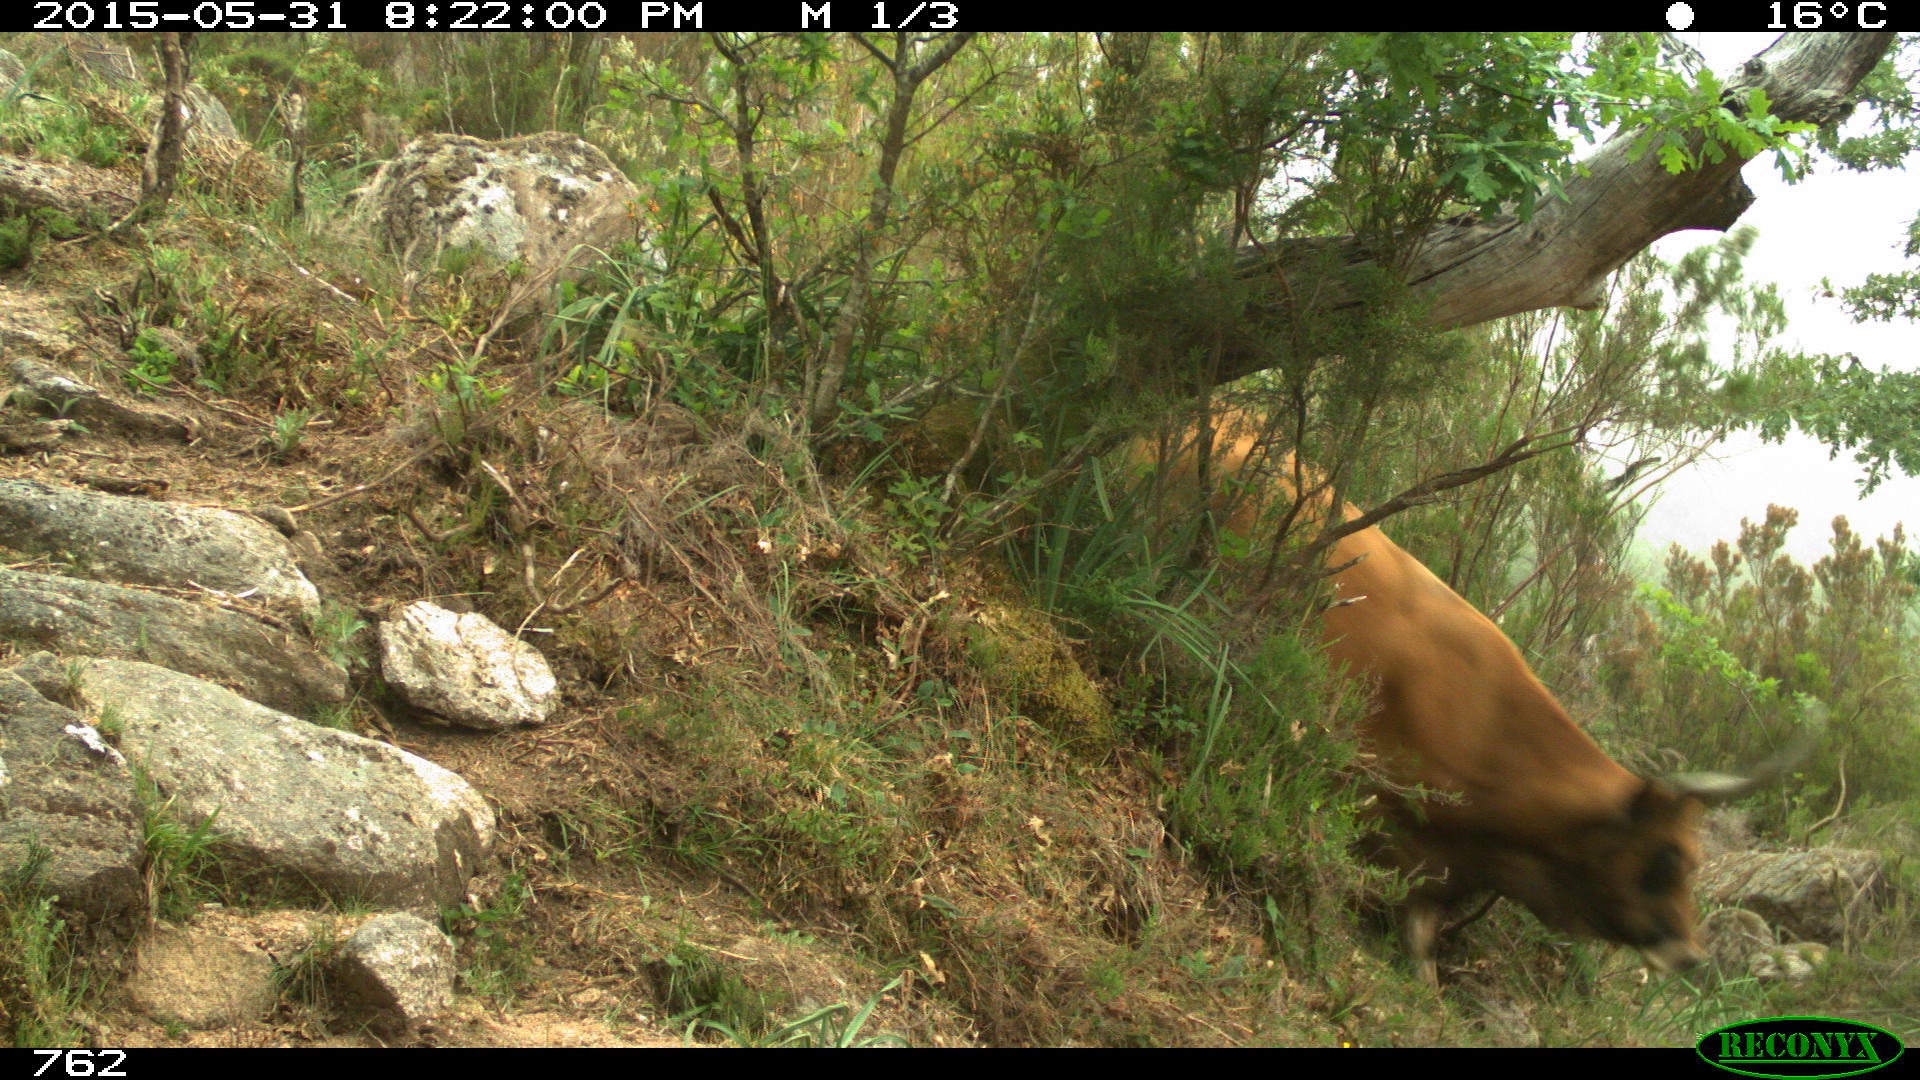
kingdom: Animalia
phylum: Chordata
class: Mammalia
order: Artiodactyla
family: Bovidae
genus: Bos
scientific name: Bos taurus
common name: Domesticated cattle
